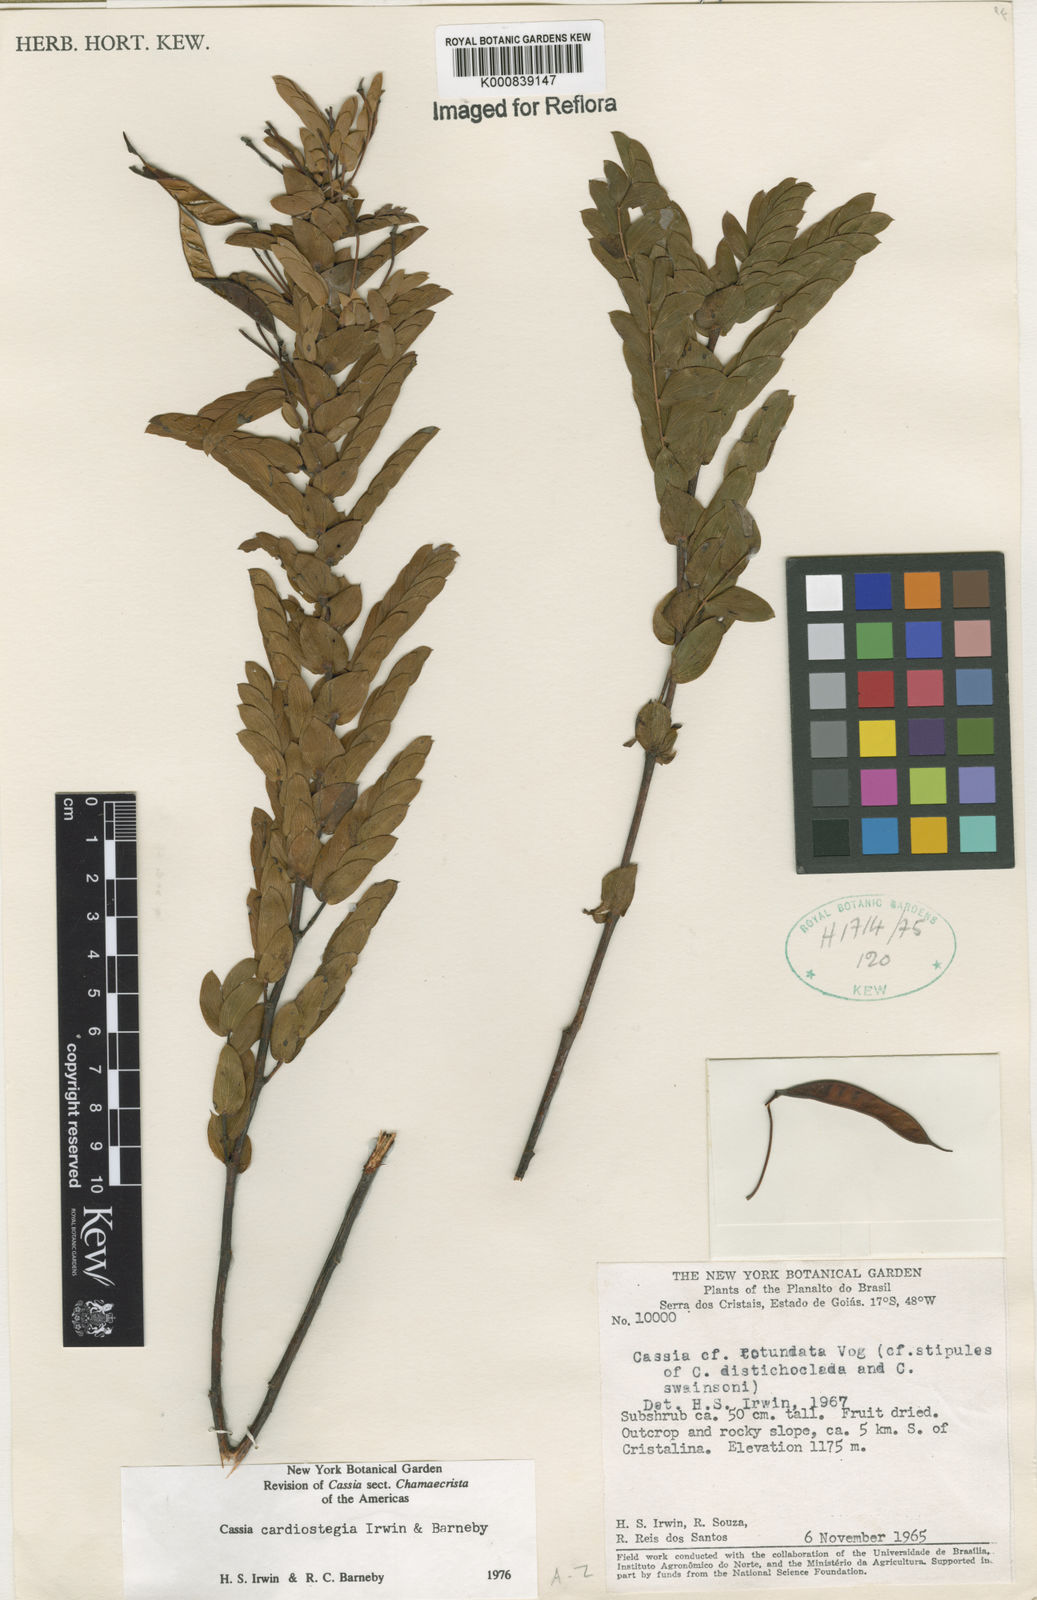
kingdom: Plantae
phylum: Tracheophyta
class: Magnoliopsida
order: Fabales
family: Fabaceae
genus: Chamaecrista
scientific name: Chamaecrista cardiostegia
